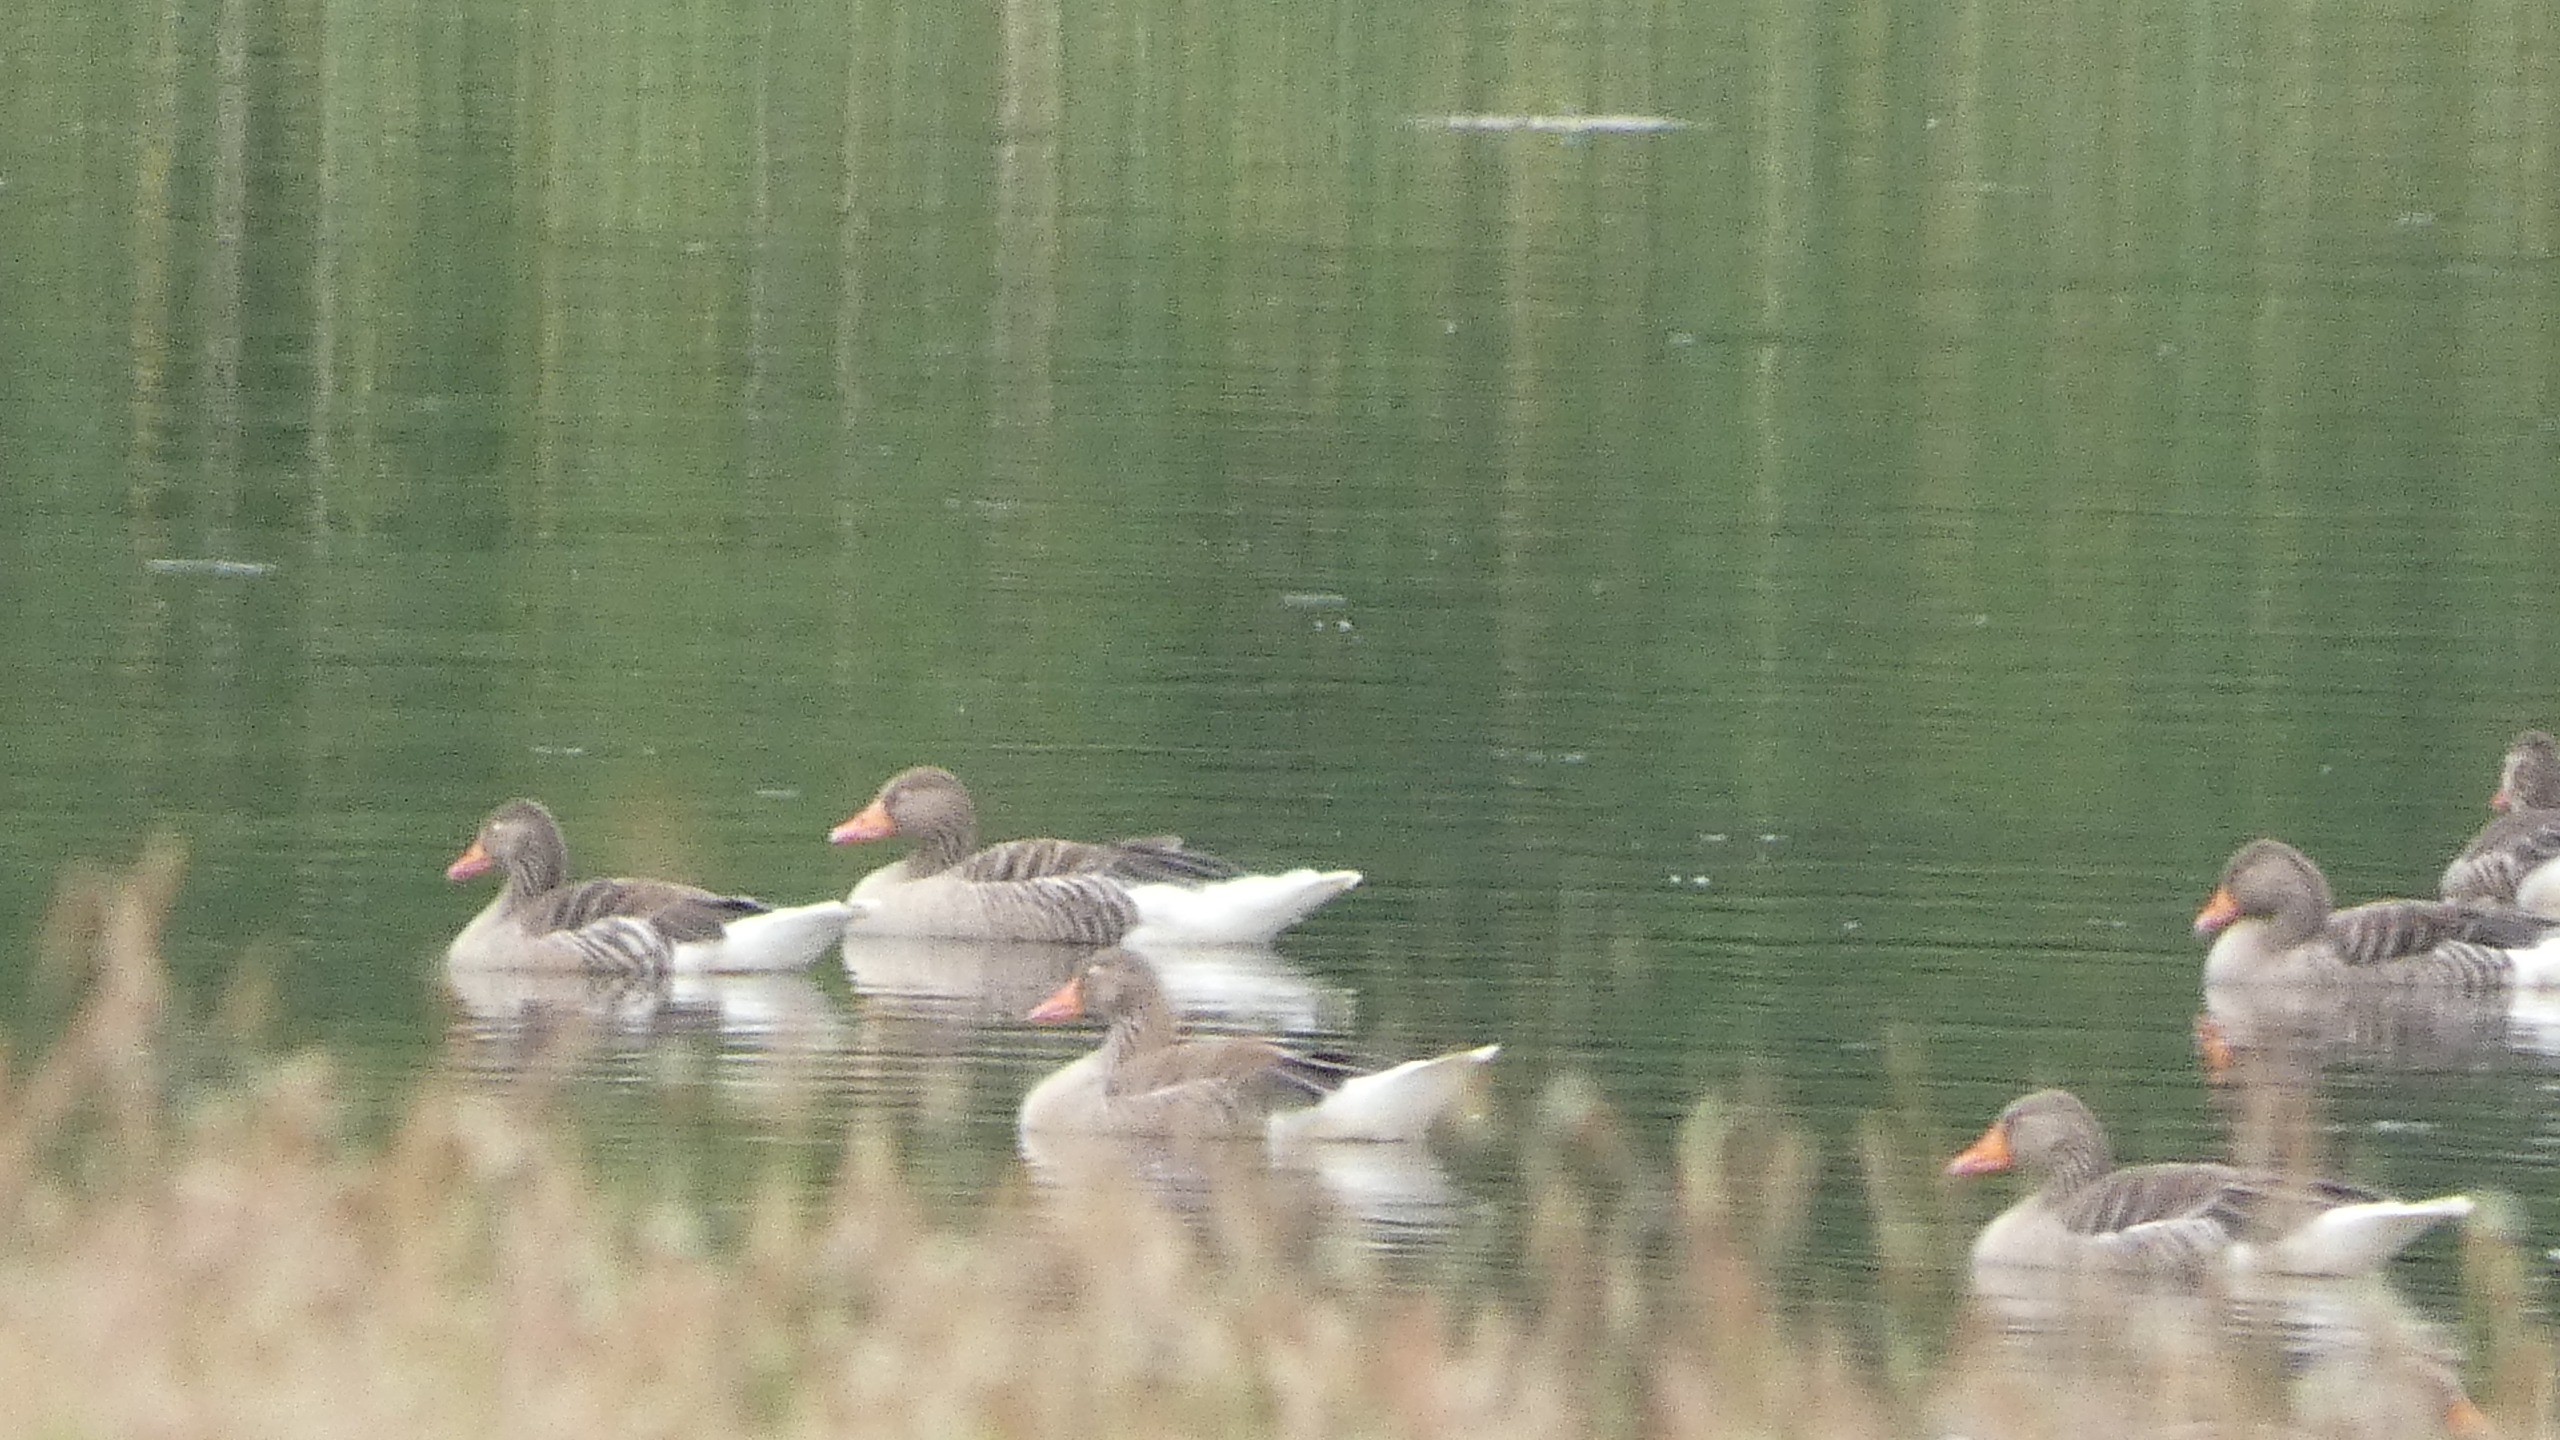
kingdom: Animalia
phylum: Chordata
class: Aves
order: Anseriformes
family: Anatidae
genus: Anser
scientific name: Anser anser
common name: Grågås
